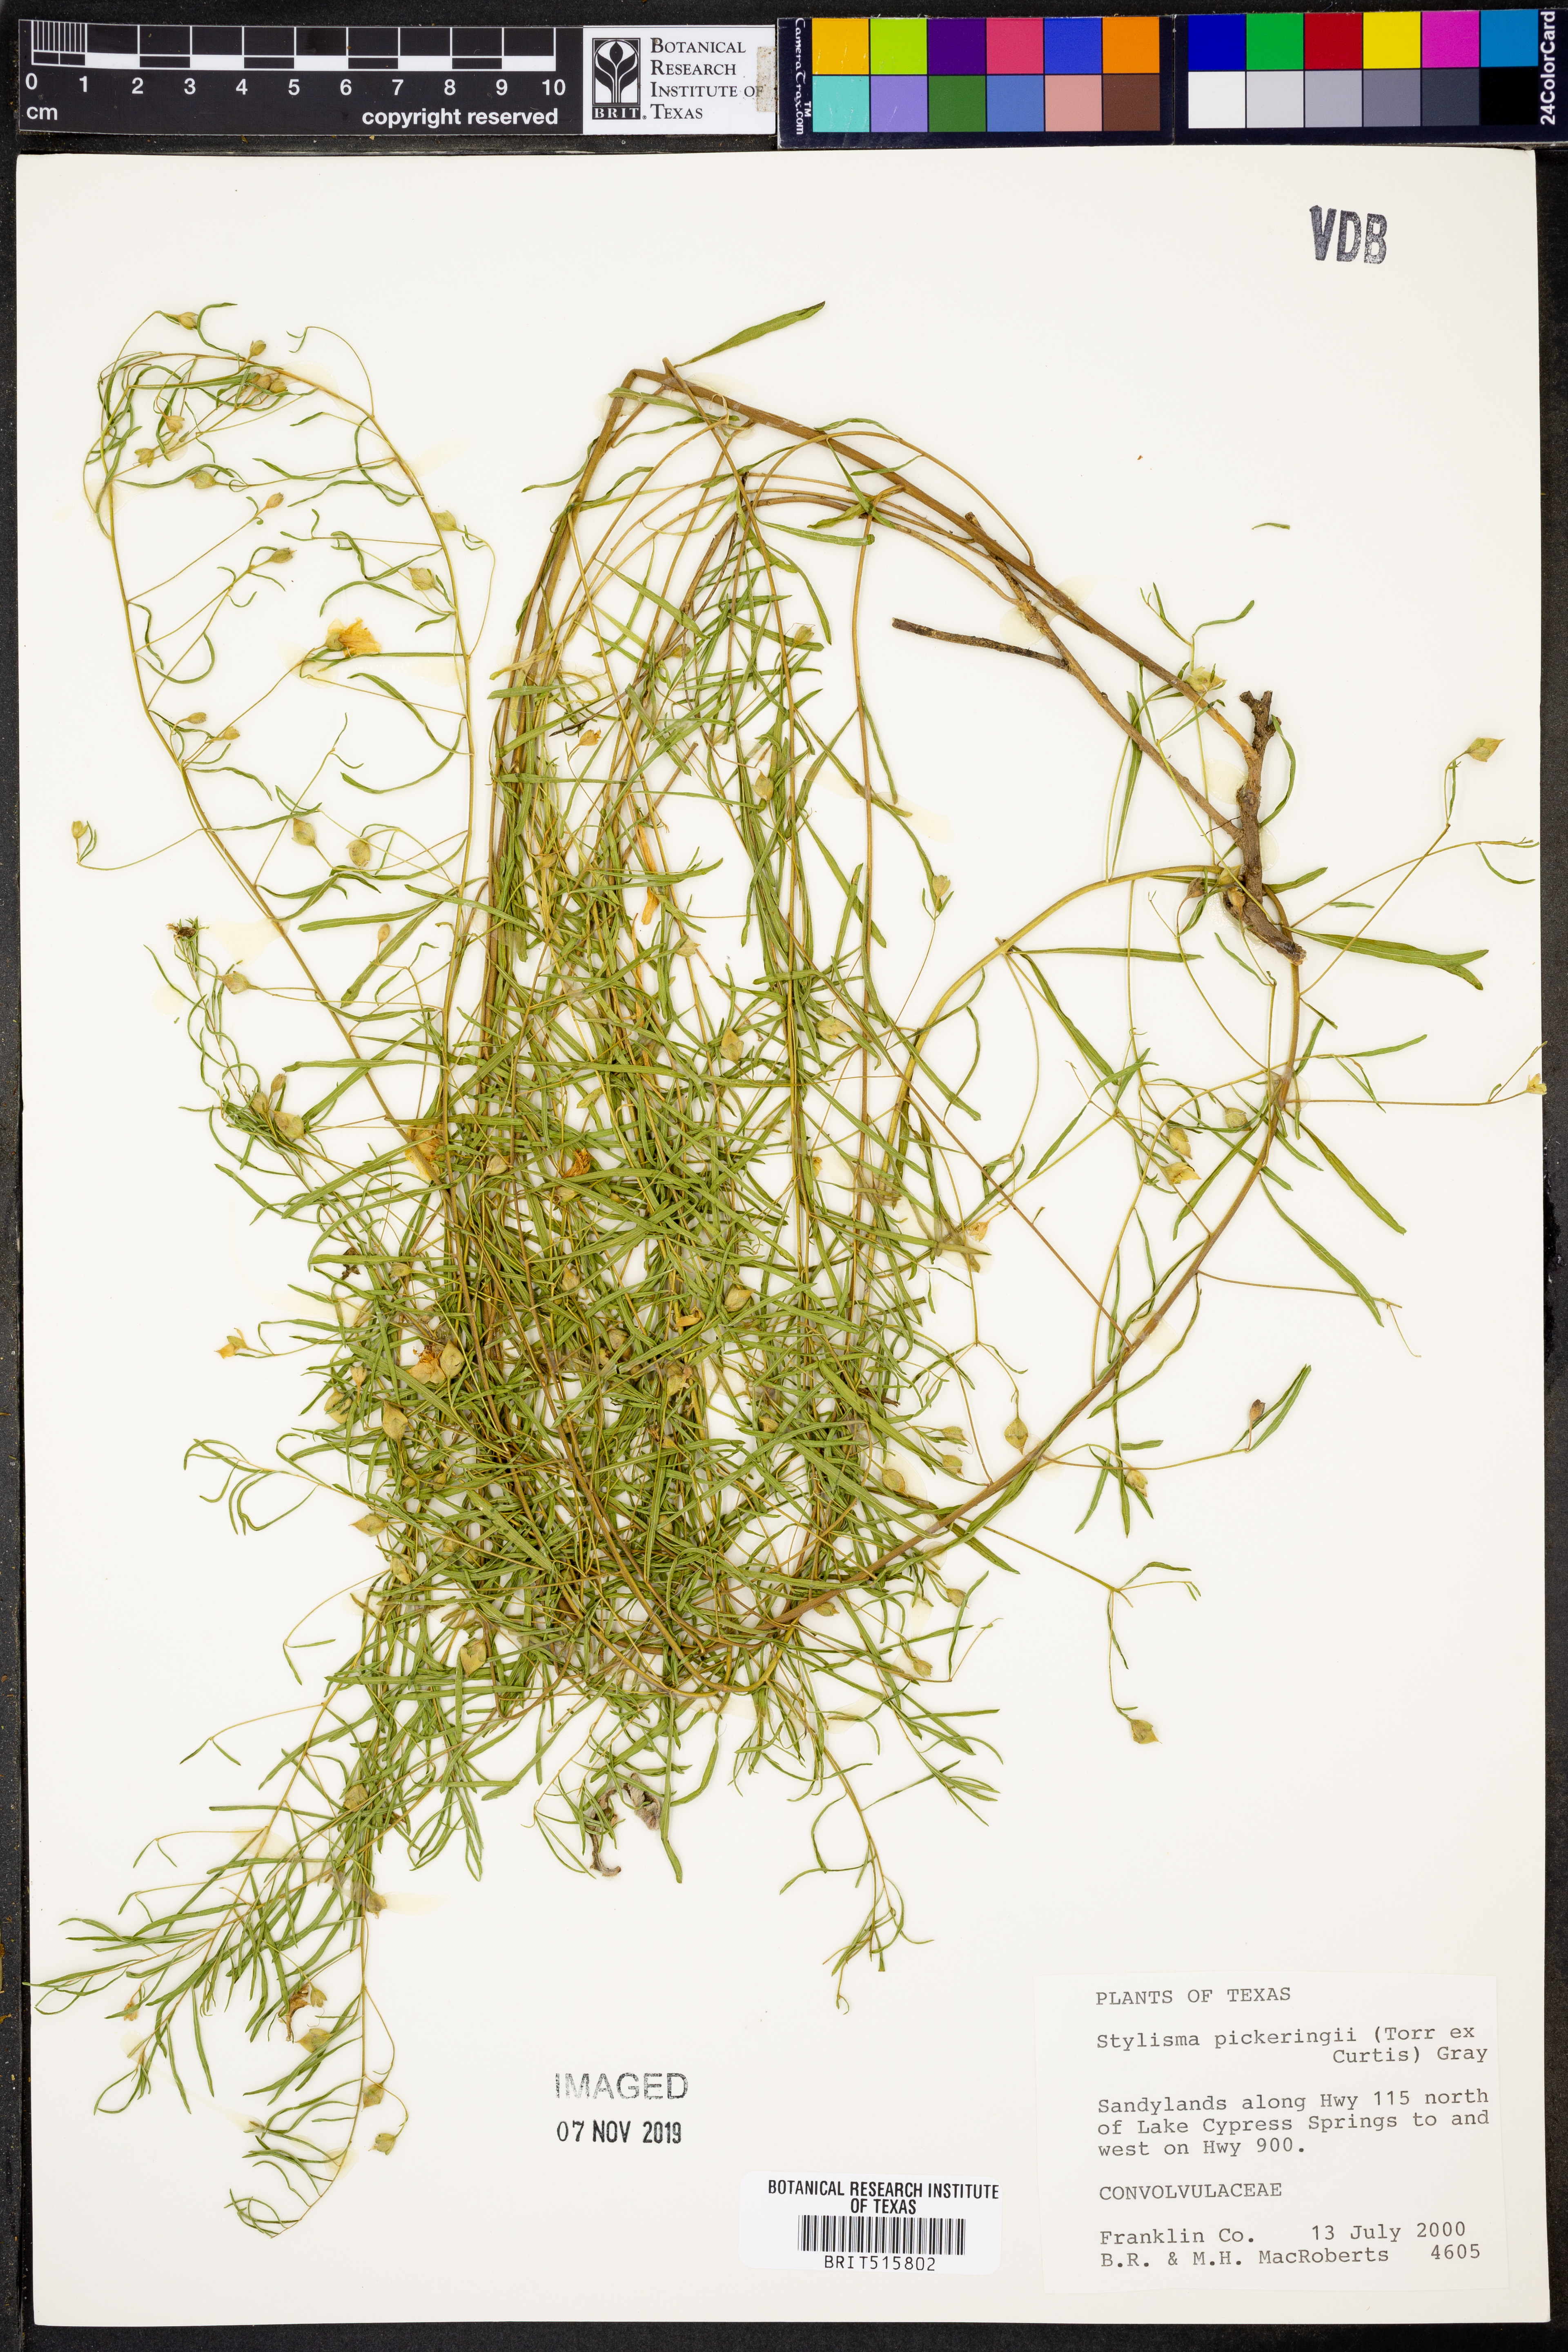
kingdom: Plantae
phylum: Tracheophyta
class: Magnoliopsida
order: Solanales
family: Convolvulaceae
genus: Stylisma
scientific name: Stylisma pickeringii
